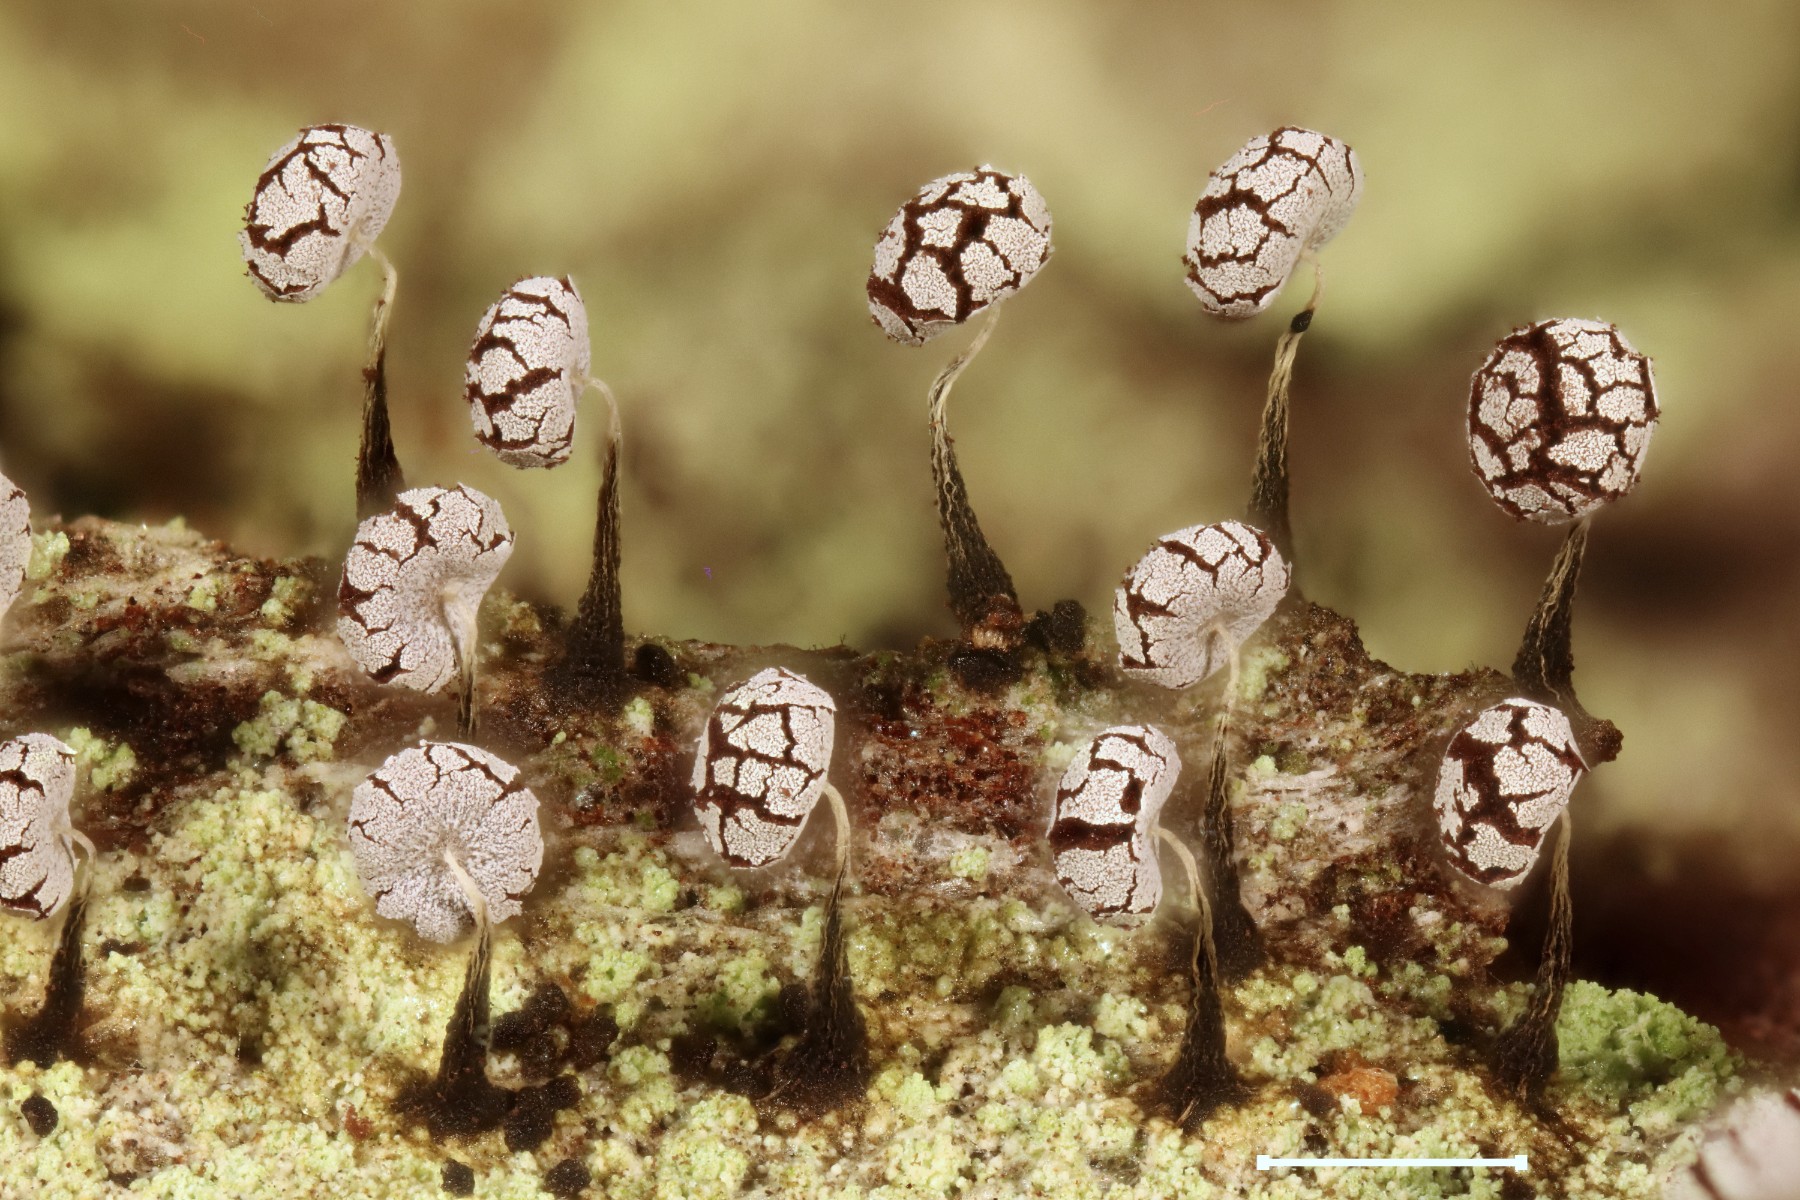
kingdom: Protozoa
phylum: Mycetozoa
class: Myxomycetes
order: Physarales
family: Physaraceae
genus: Physarum
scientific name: Physarum album
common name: nikkende støvknop
